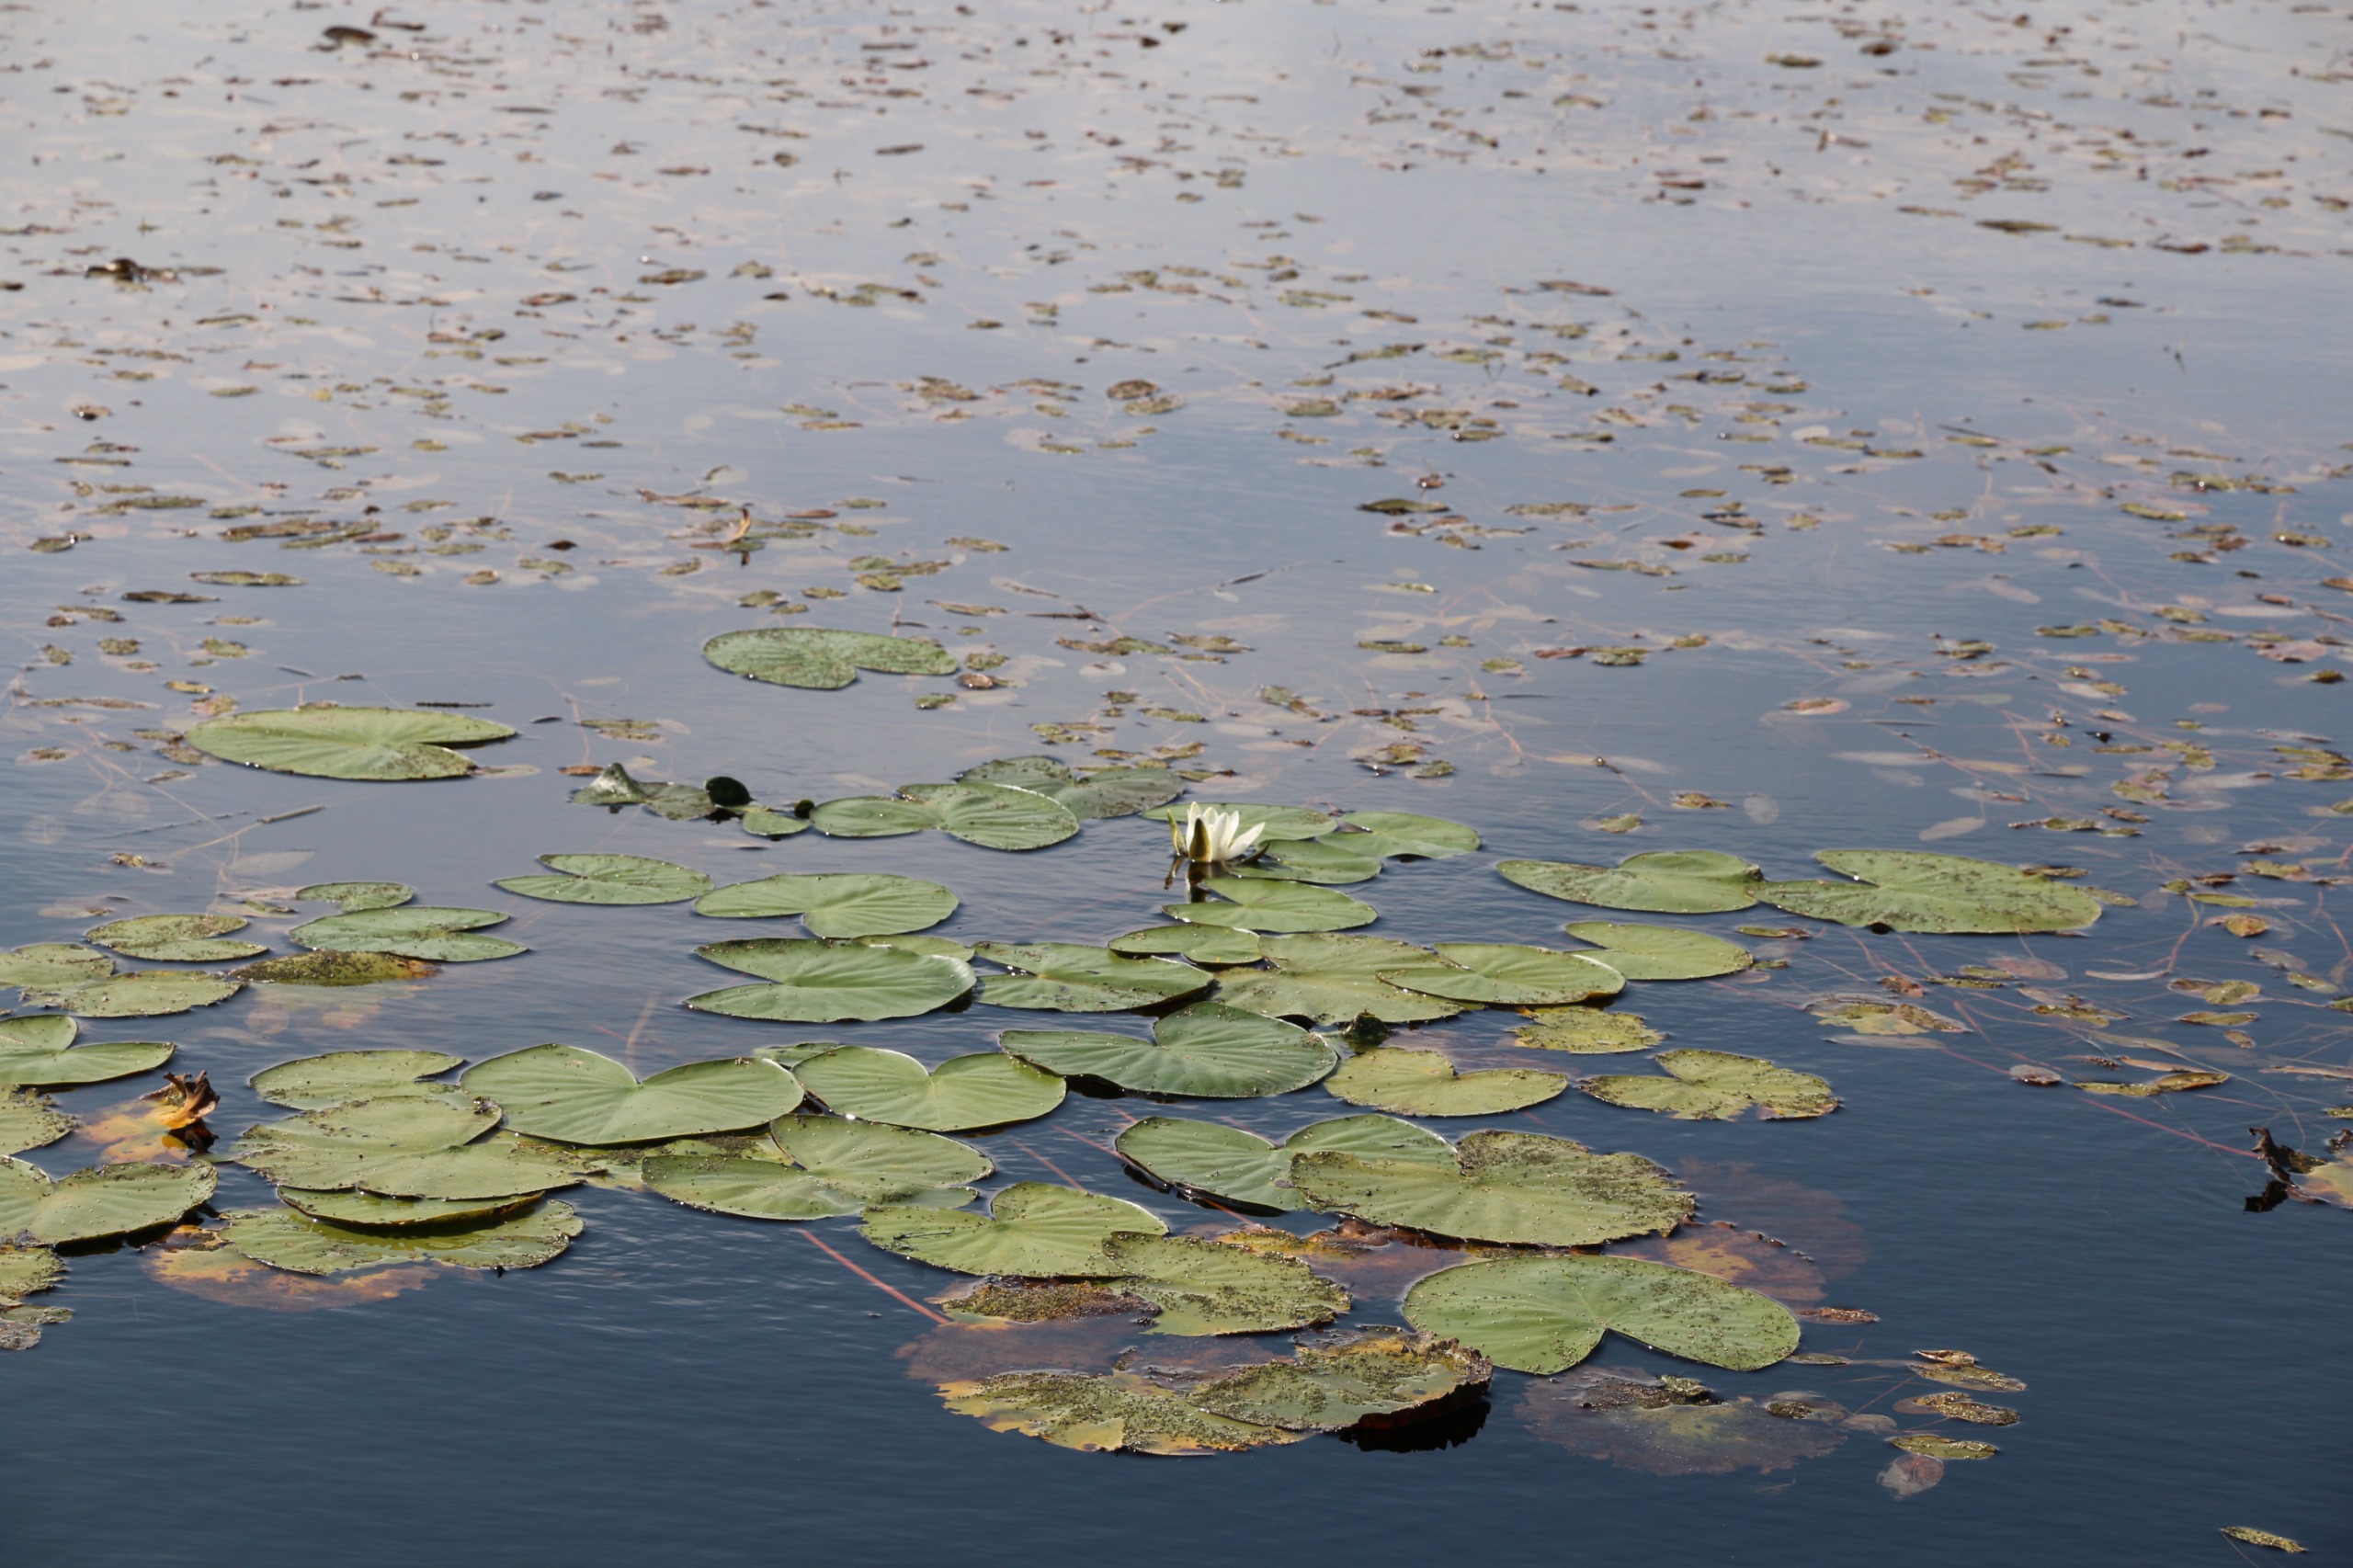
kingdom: Plantae
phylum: Tracheophyta
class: Magnoliopsida
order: Nymphaeales
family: Nymphaeaceae
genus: Nymphaea
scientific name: Nymphaea alba
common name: Hvid åkande
